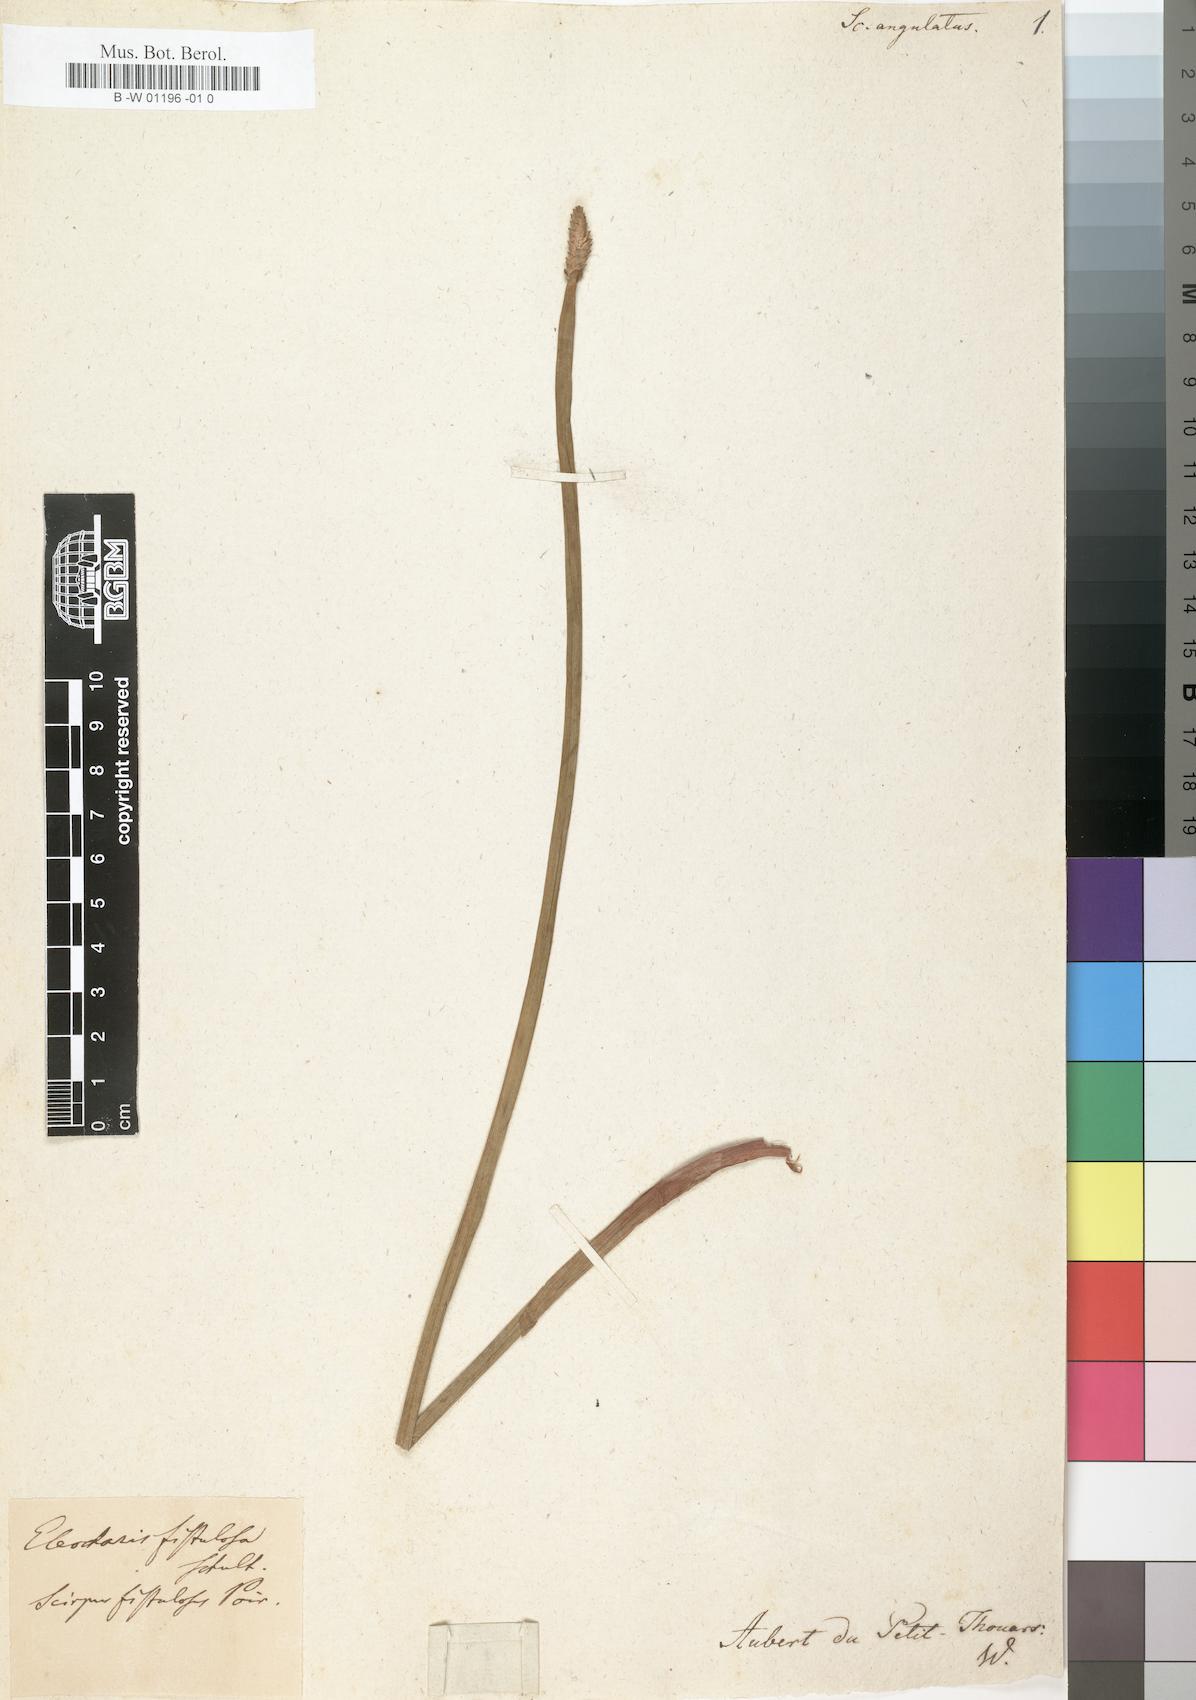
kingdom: Plantae
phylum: Tracheophyta
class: Liliopsida
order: Poales
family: Cyperaceae
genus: Eleocharis
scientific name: Eleocharis acutangula
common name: Acute spikerush
